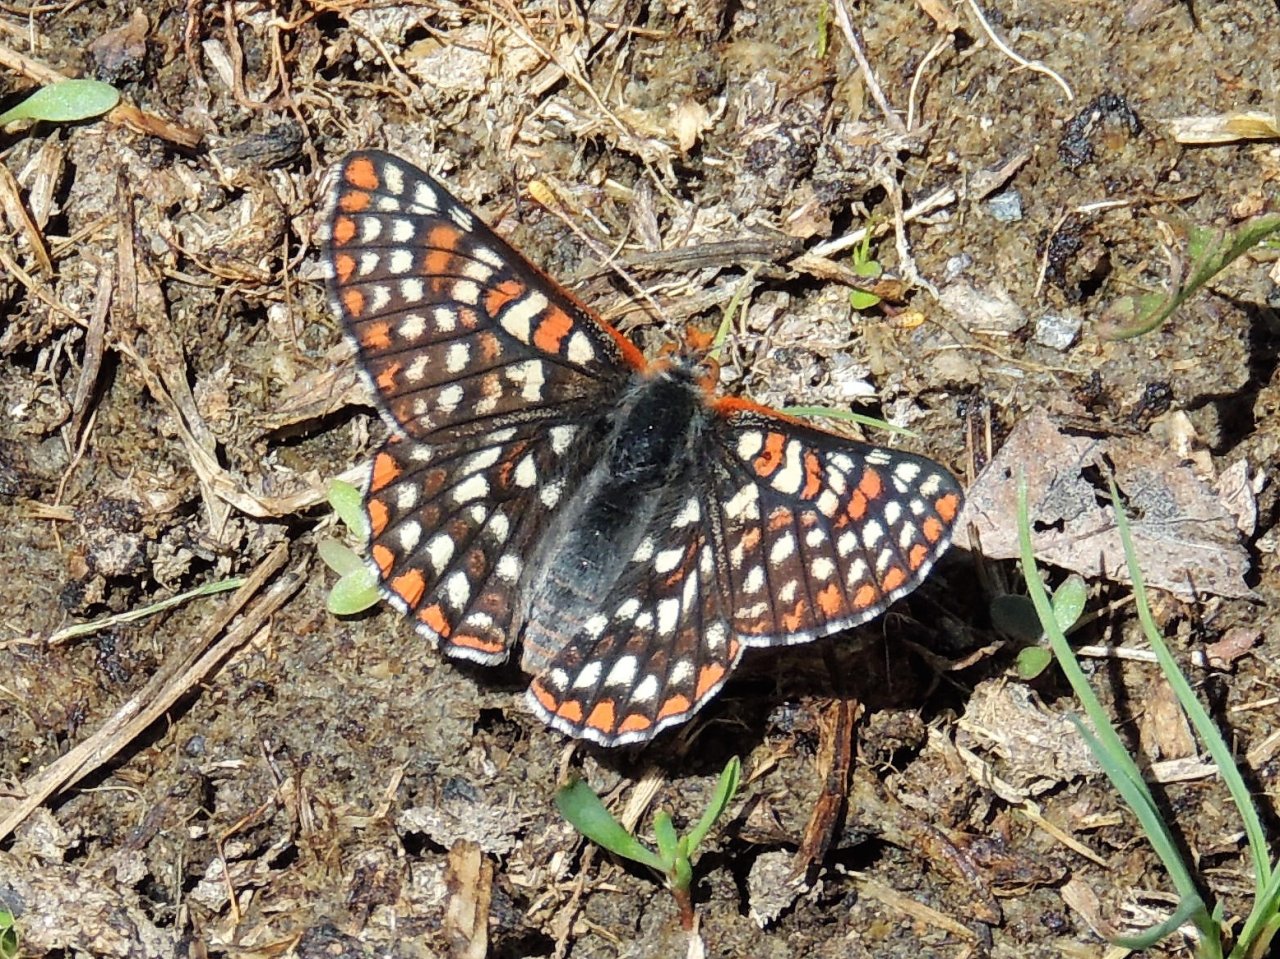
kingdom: Animalia
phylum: Arthropoda
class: Insecta
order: Lepidoptera
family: Nymphalidae
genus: Occidryas
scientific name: Occidryas anicia
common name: Anicia Checkerspot
